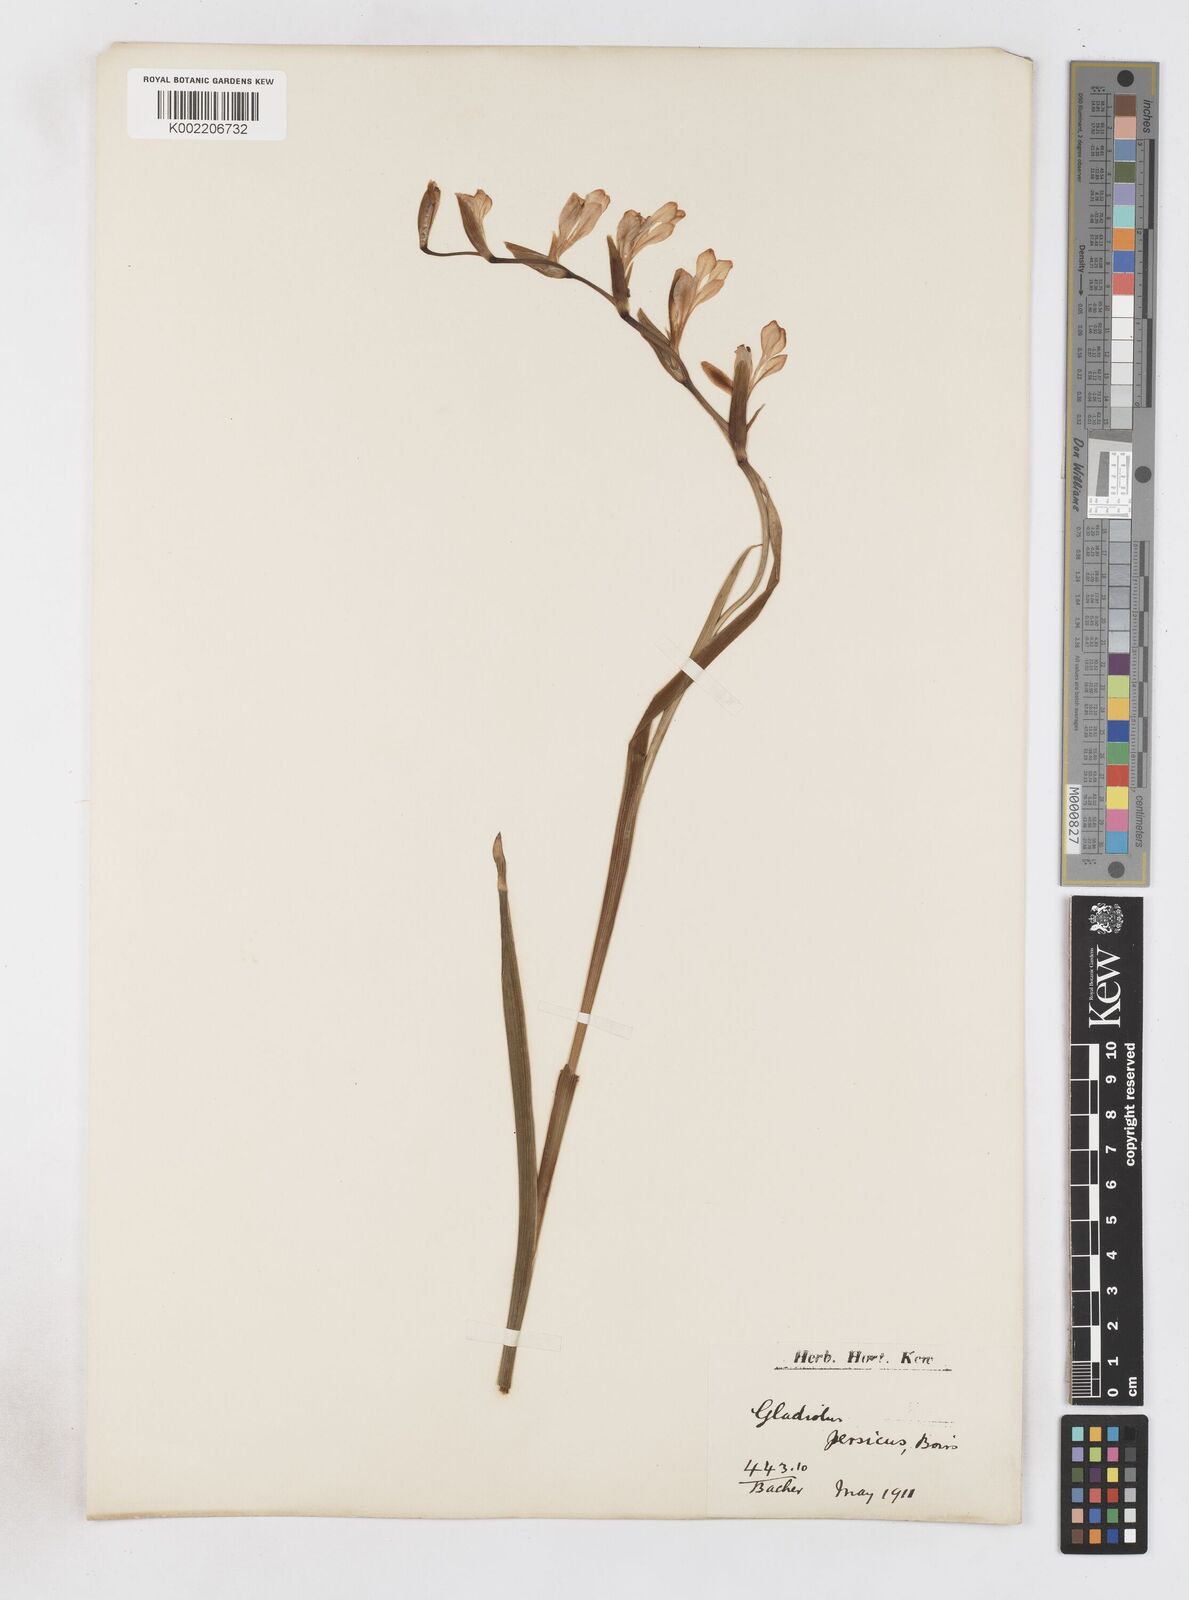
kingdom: Plantae
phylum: Tracheophyta
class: Liliopsida
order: Asparagales
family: Iridaceae
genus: Gladiolus
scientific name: Gladiolus persicus
